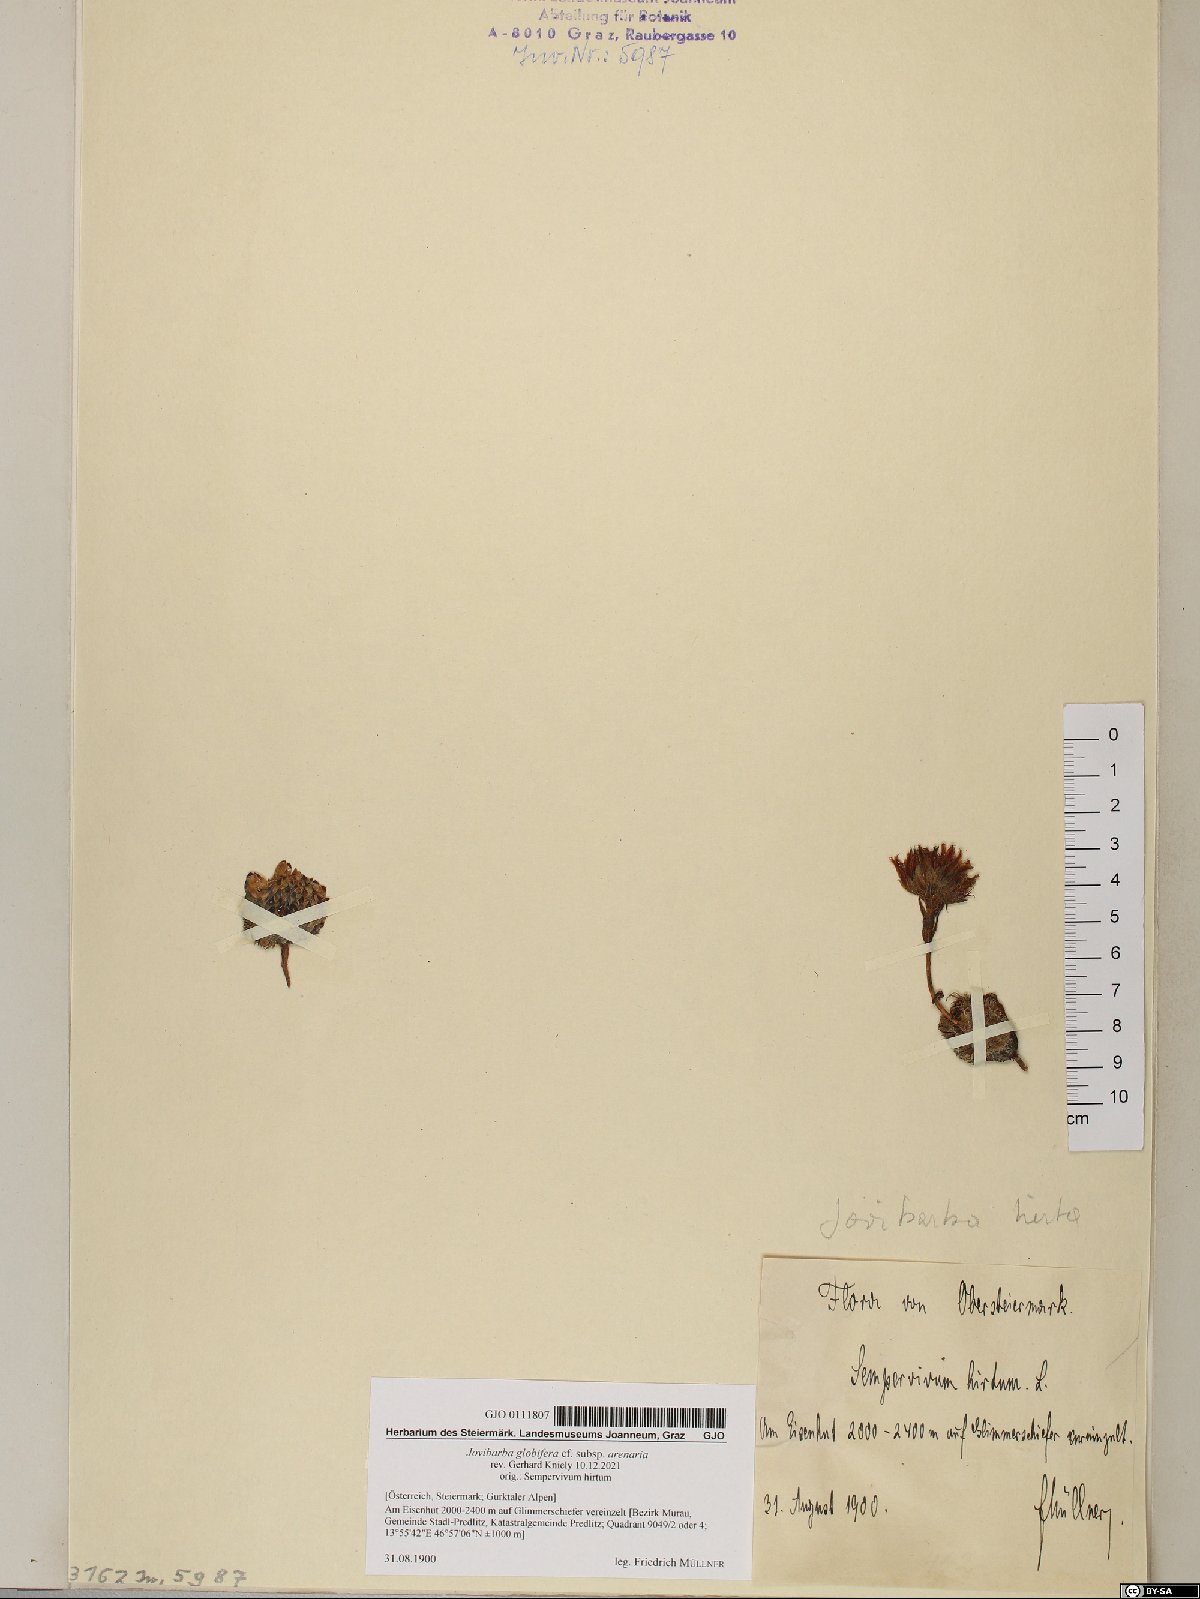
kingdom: Plantae
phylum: Tracheophyta
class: Magnoliopsida
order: Saxifragales
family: Crassulaceae
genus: Sempervivum
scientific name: Sempervivum globiferum
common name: Rolling hen-and-chicks
